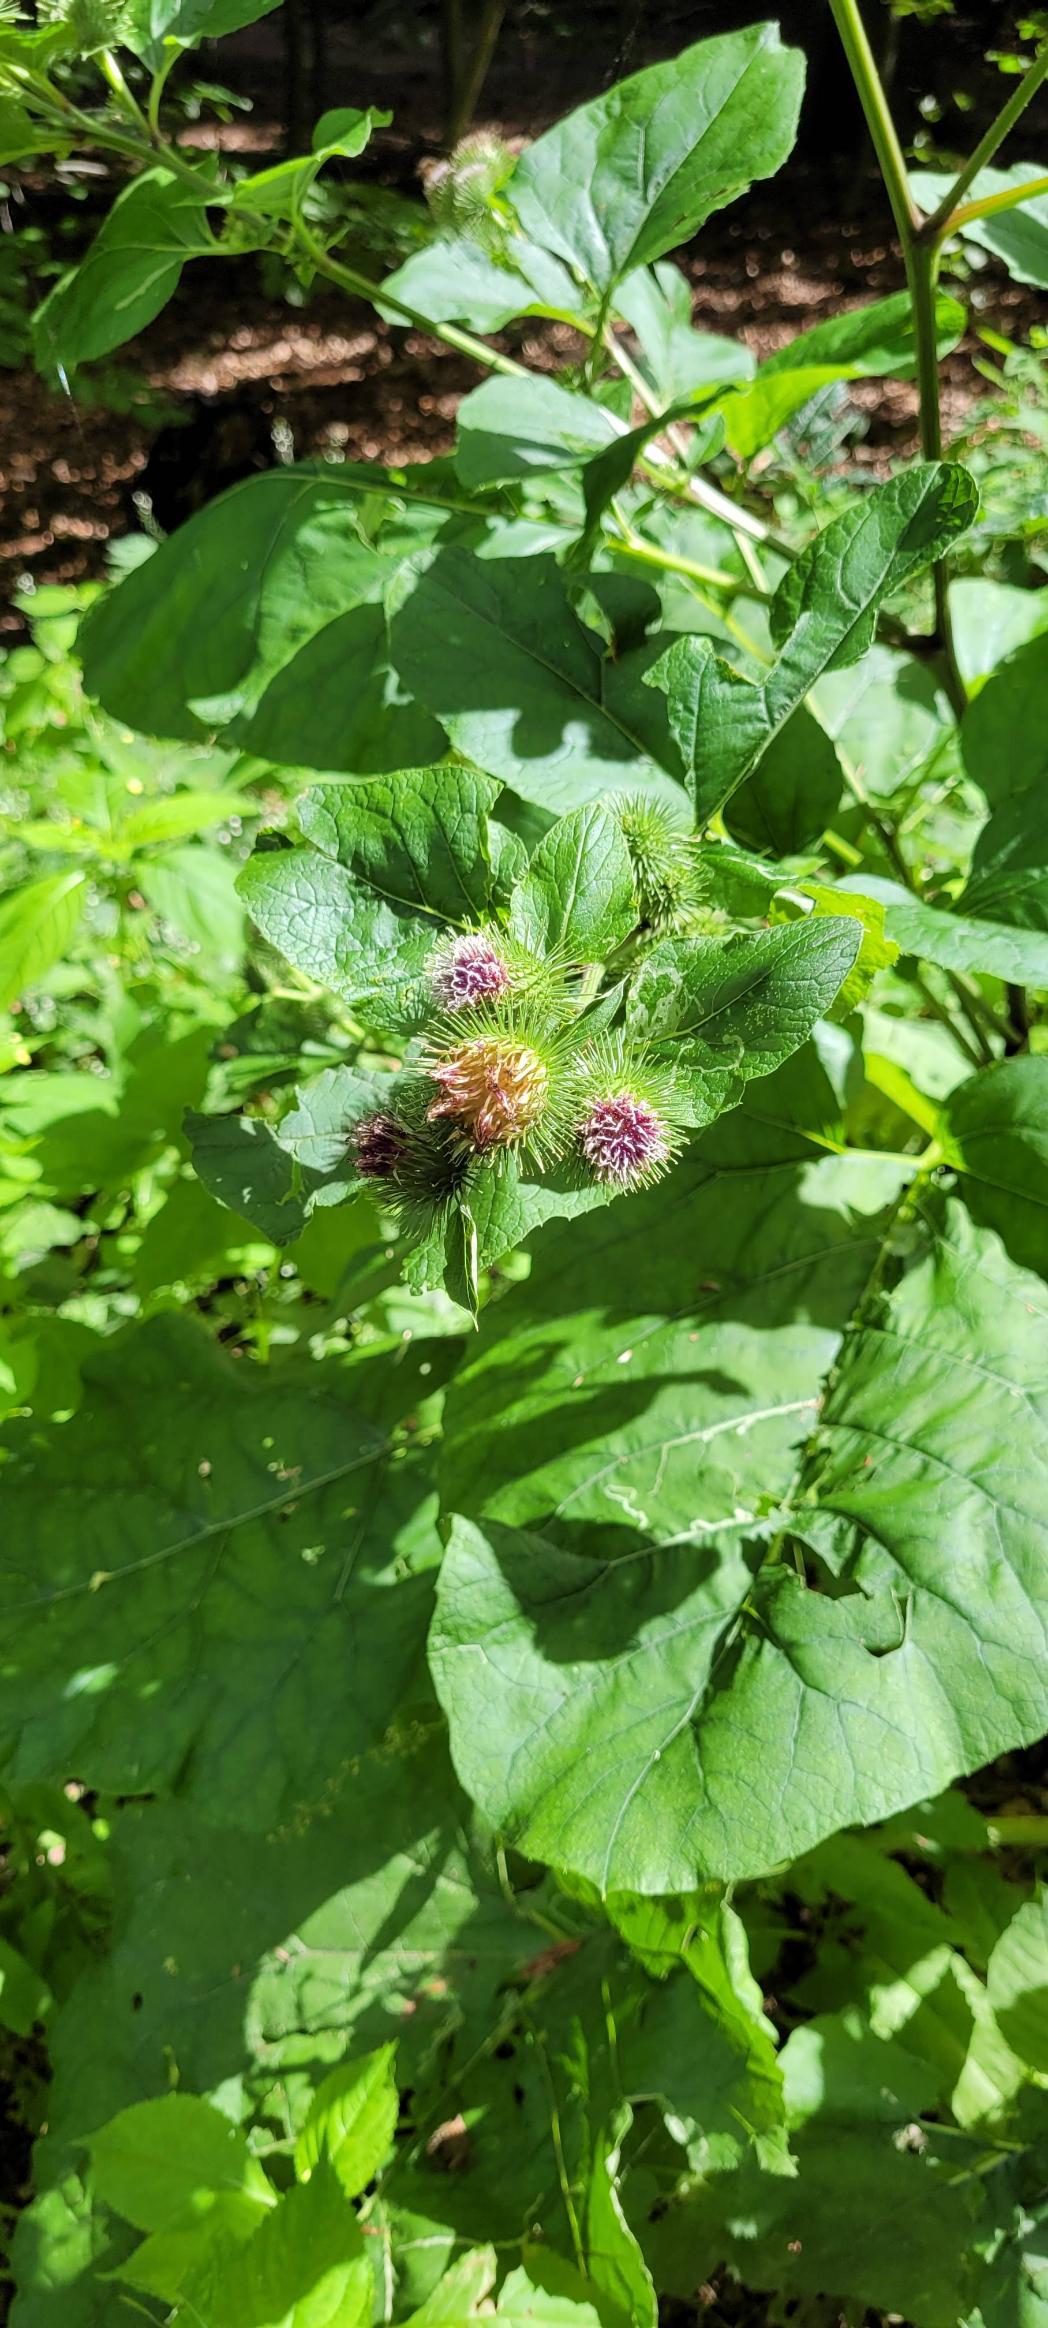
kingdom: Plantae
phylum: Tracheophyta
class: Magnoliopsida
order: Asterales
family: Asteraceae
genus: Arctium
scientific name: Arctium lappa
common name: Glat burre
